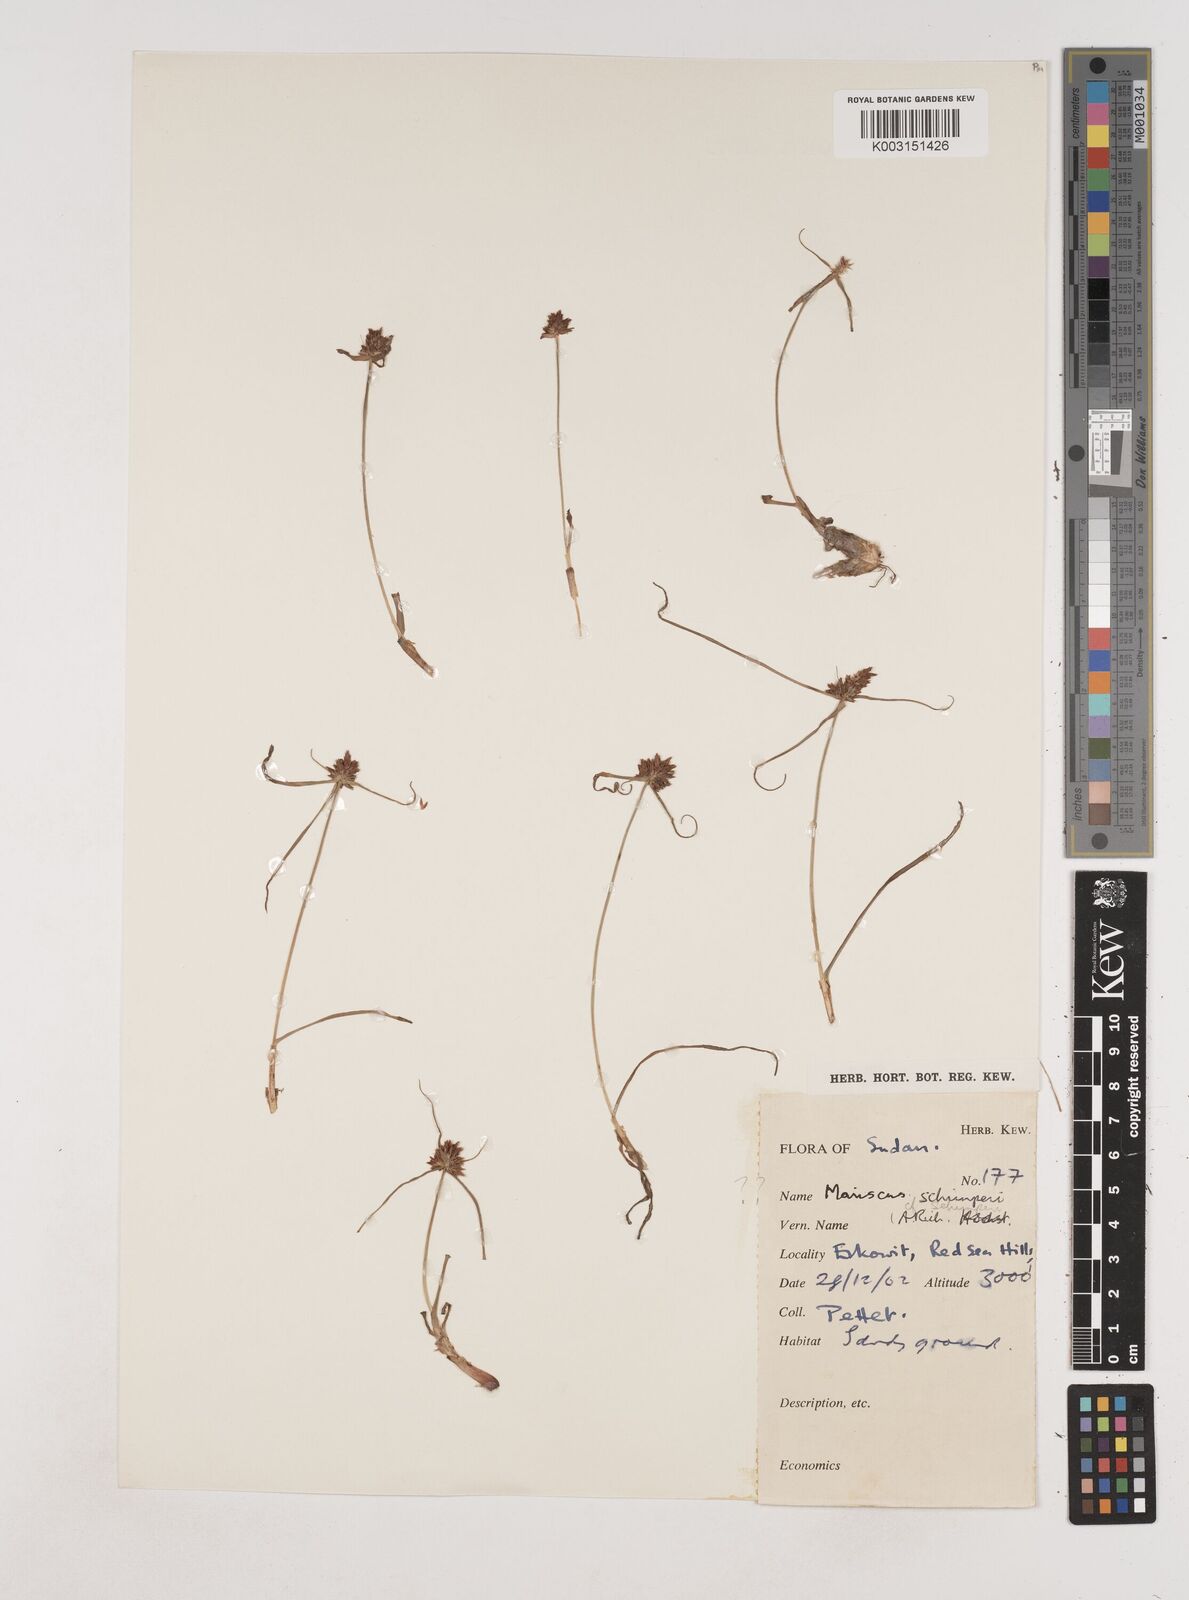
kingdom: Plantae
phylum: Tracheophyta
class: Liliopsida
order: Poales
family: Cyperaceae
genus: Cyperus
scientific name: Cyperus cruentus
